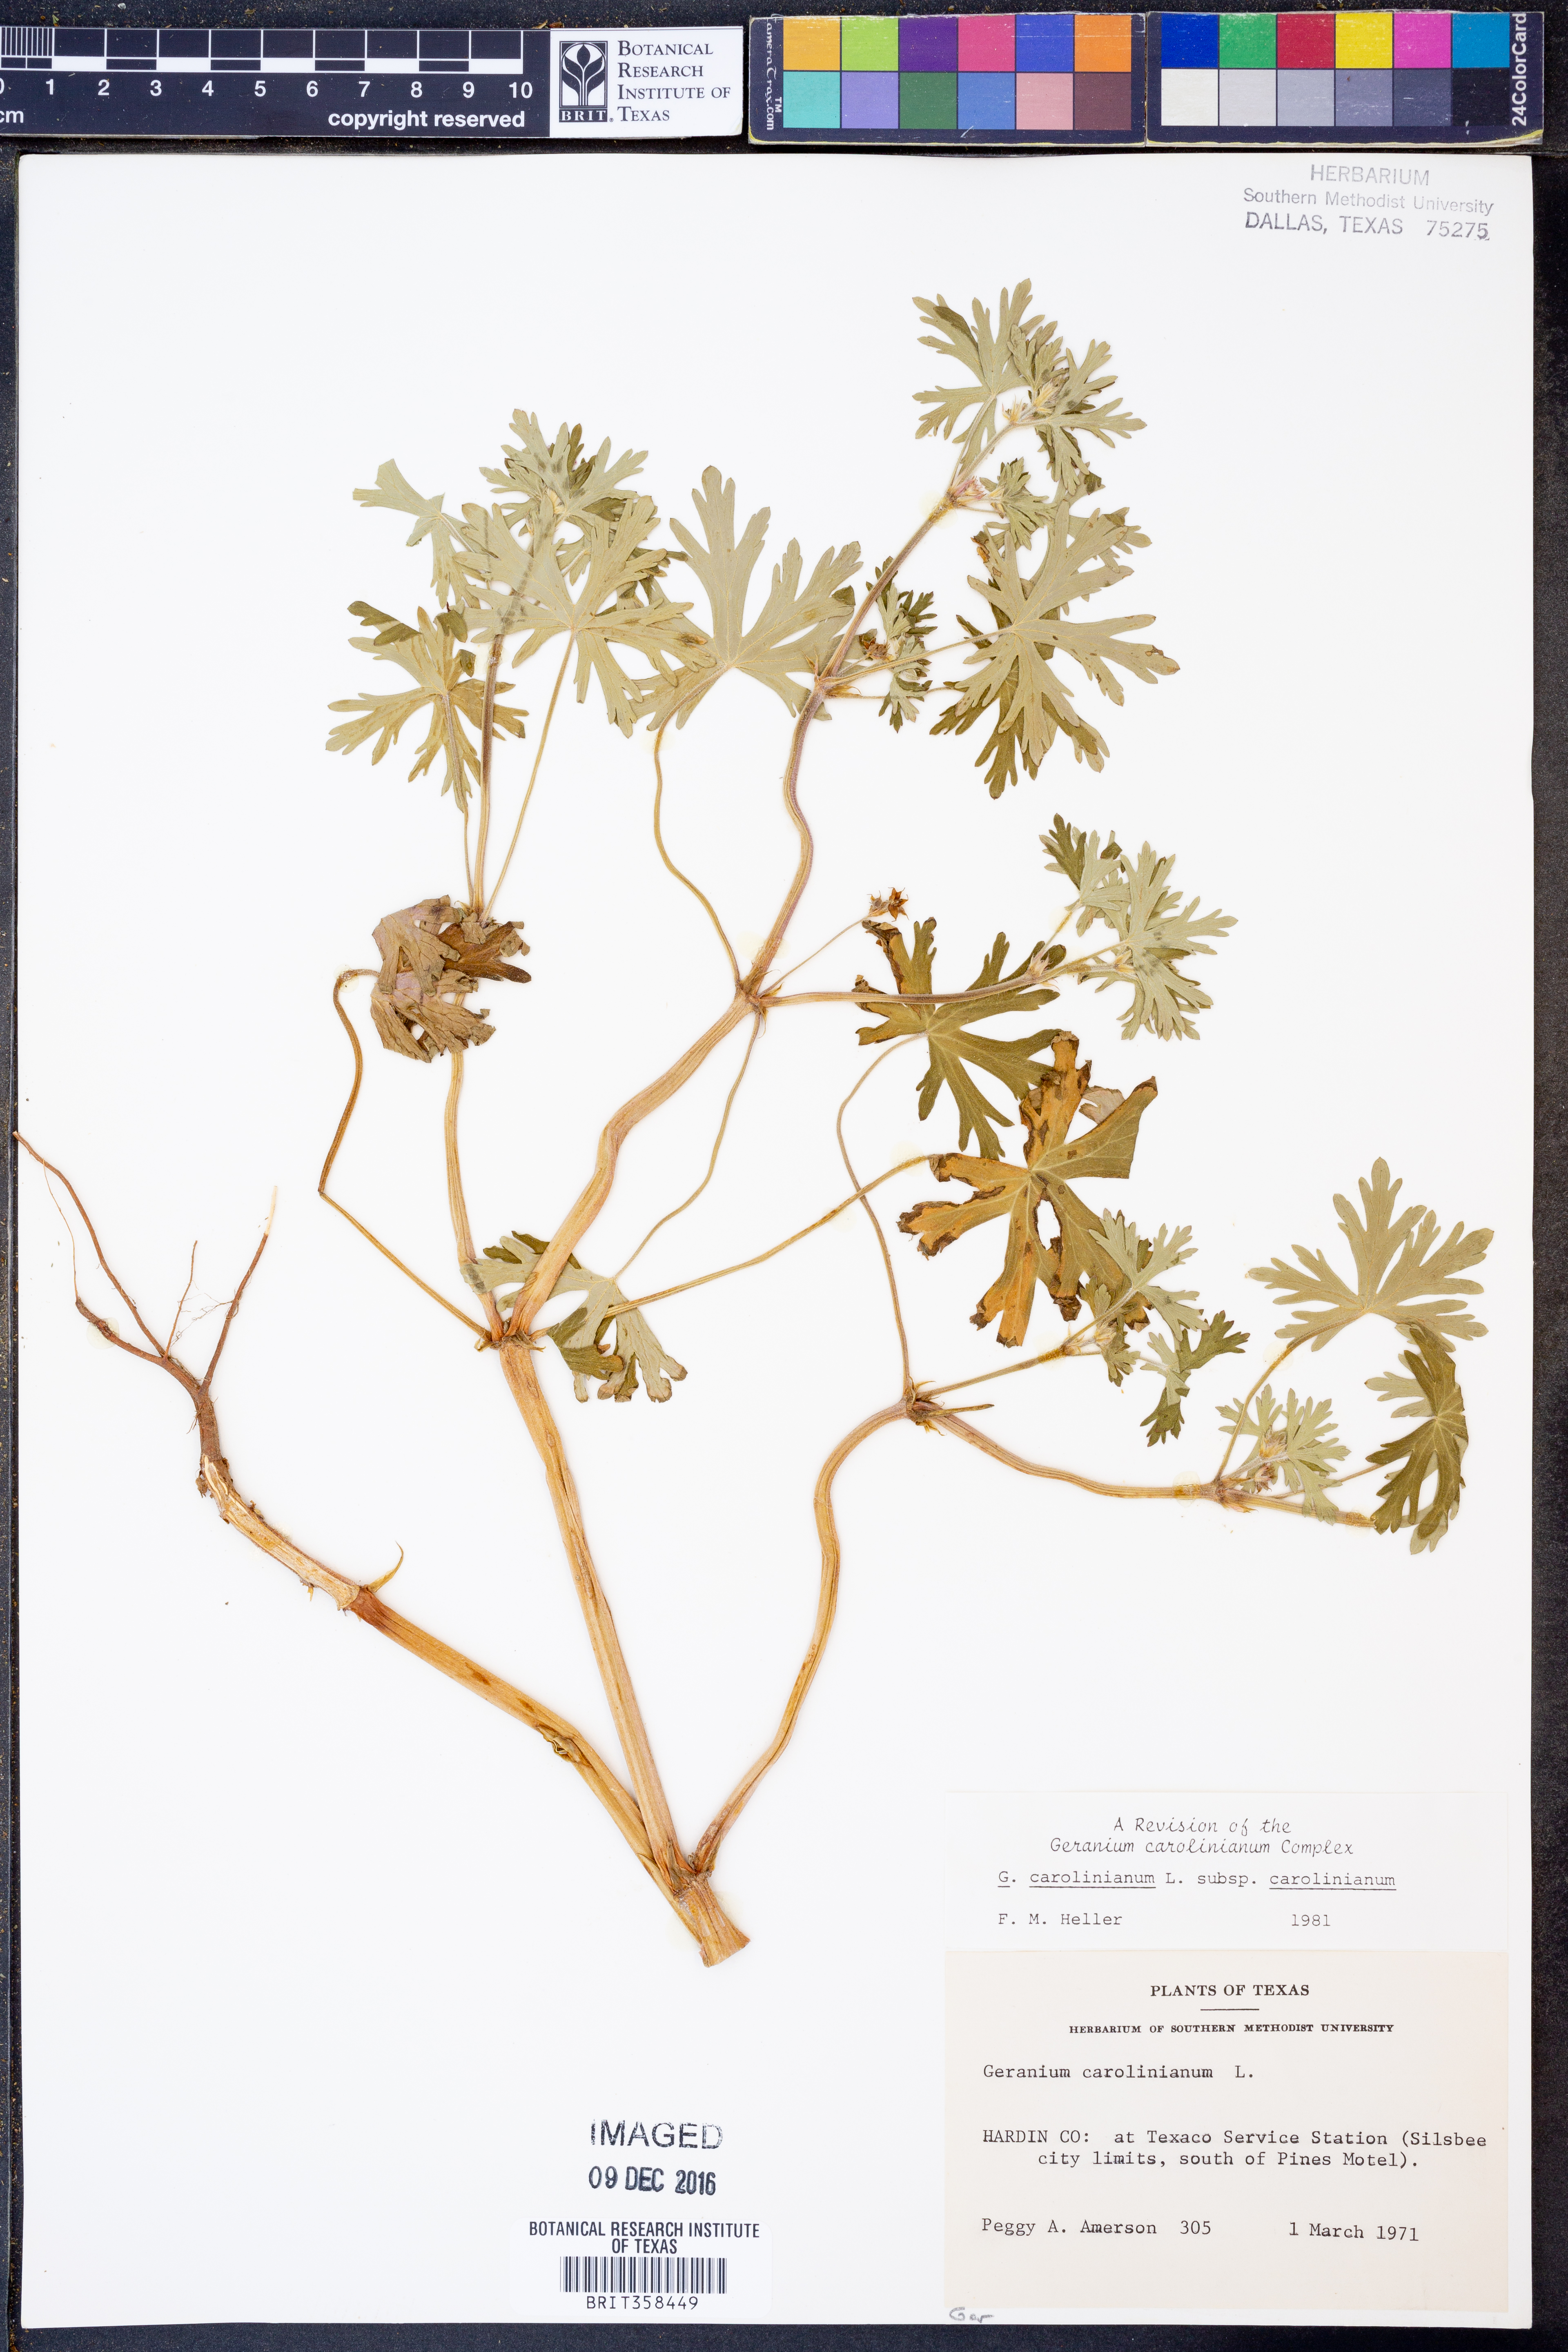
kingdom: Plantae
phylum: Tracheophyta
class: Magnoliopsida
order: Geraniales
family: Geraniaceae
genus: Geranium
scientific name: Geranium carolinianum
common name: Carolina crane's-bill
